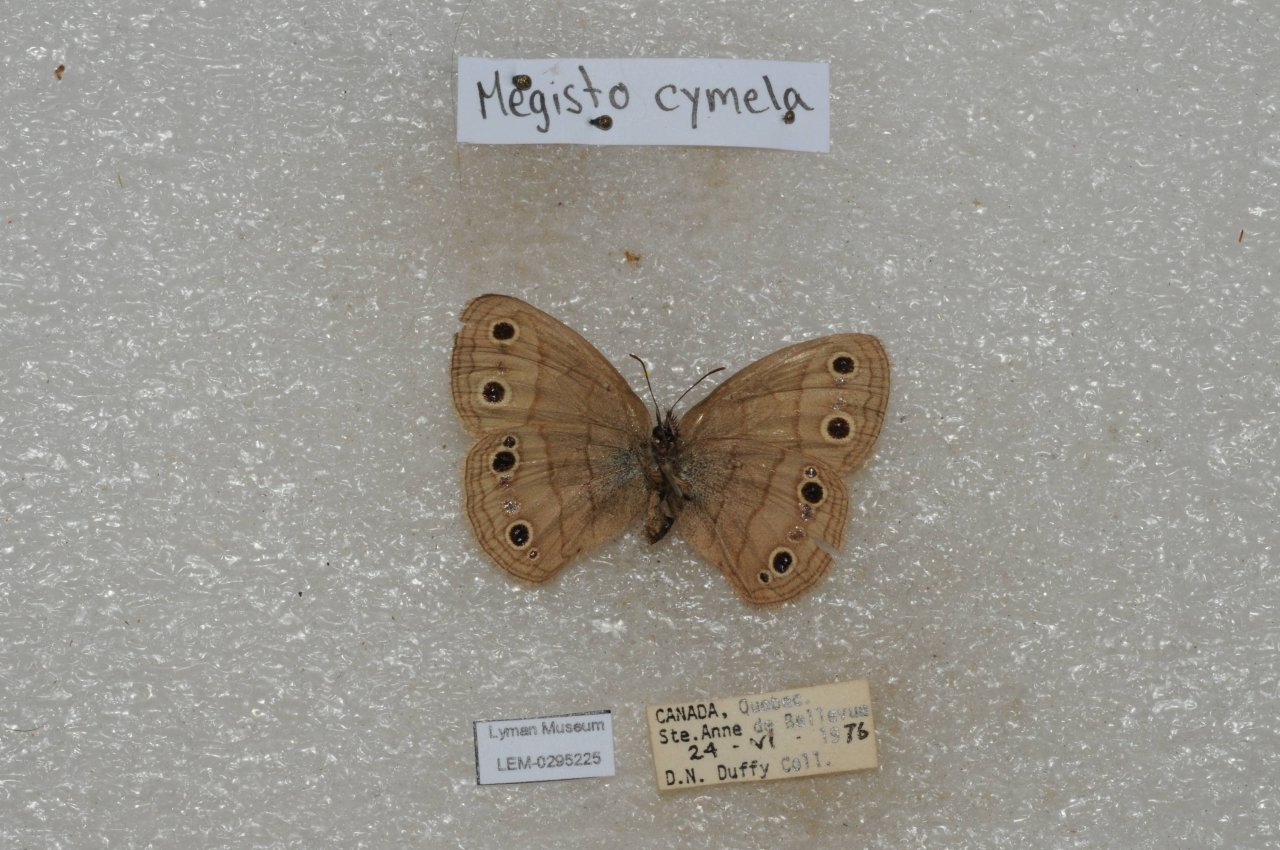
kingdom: Animalia
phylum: Arthropoda
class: Insecta
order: Lepidoptera
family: Nymphalidae
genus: Euptychia
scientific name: Euptychia cymela
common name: Little Wood Satyr
